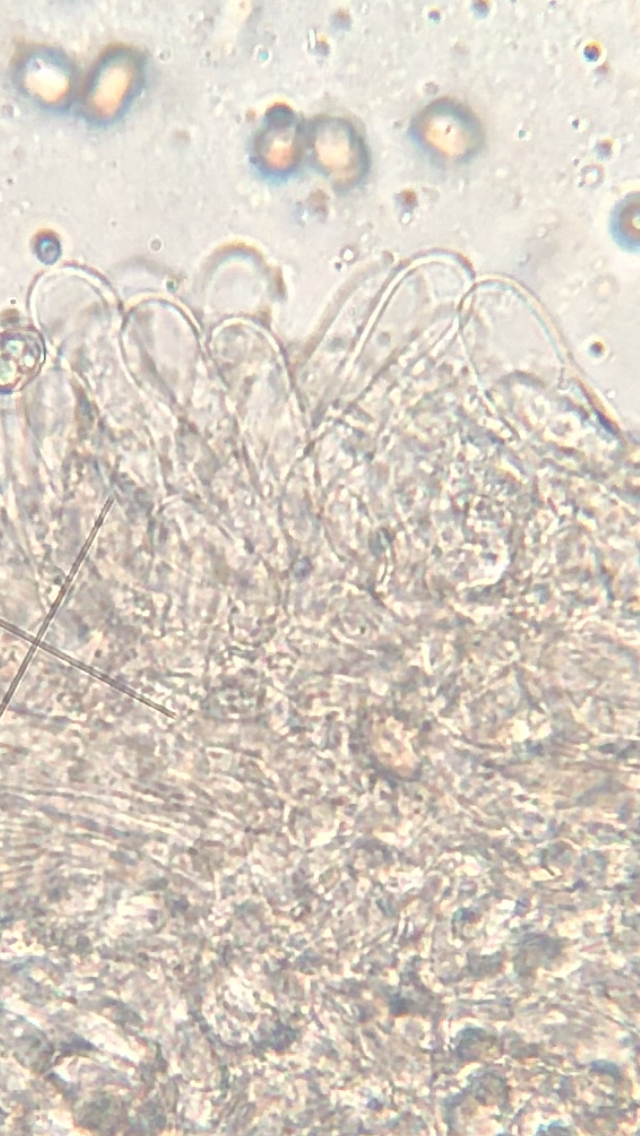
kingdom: Fungi
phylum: Basidiomycota
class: Agaricomycetes
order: Agaricales
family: Entolomataceae
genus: Entoloma
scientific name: Entoloma
